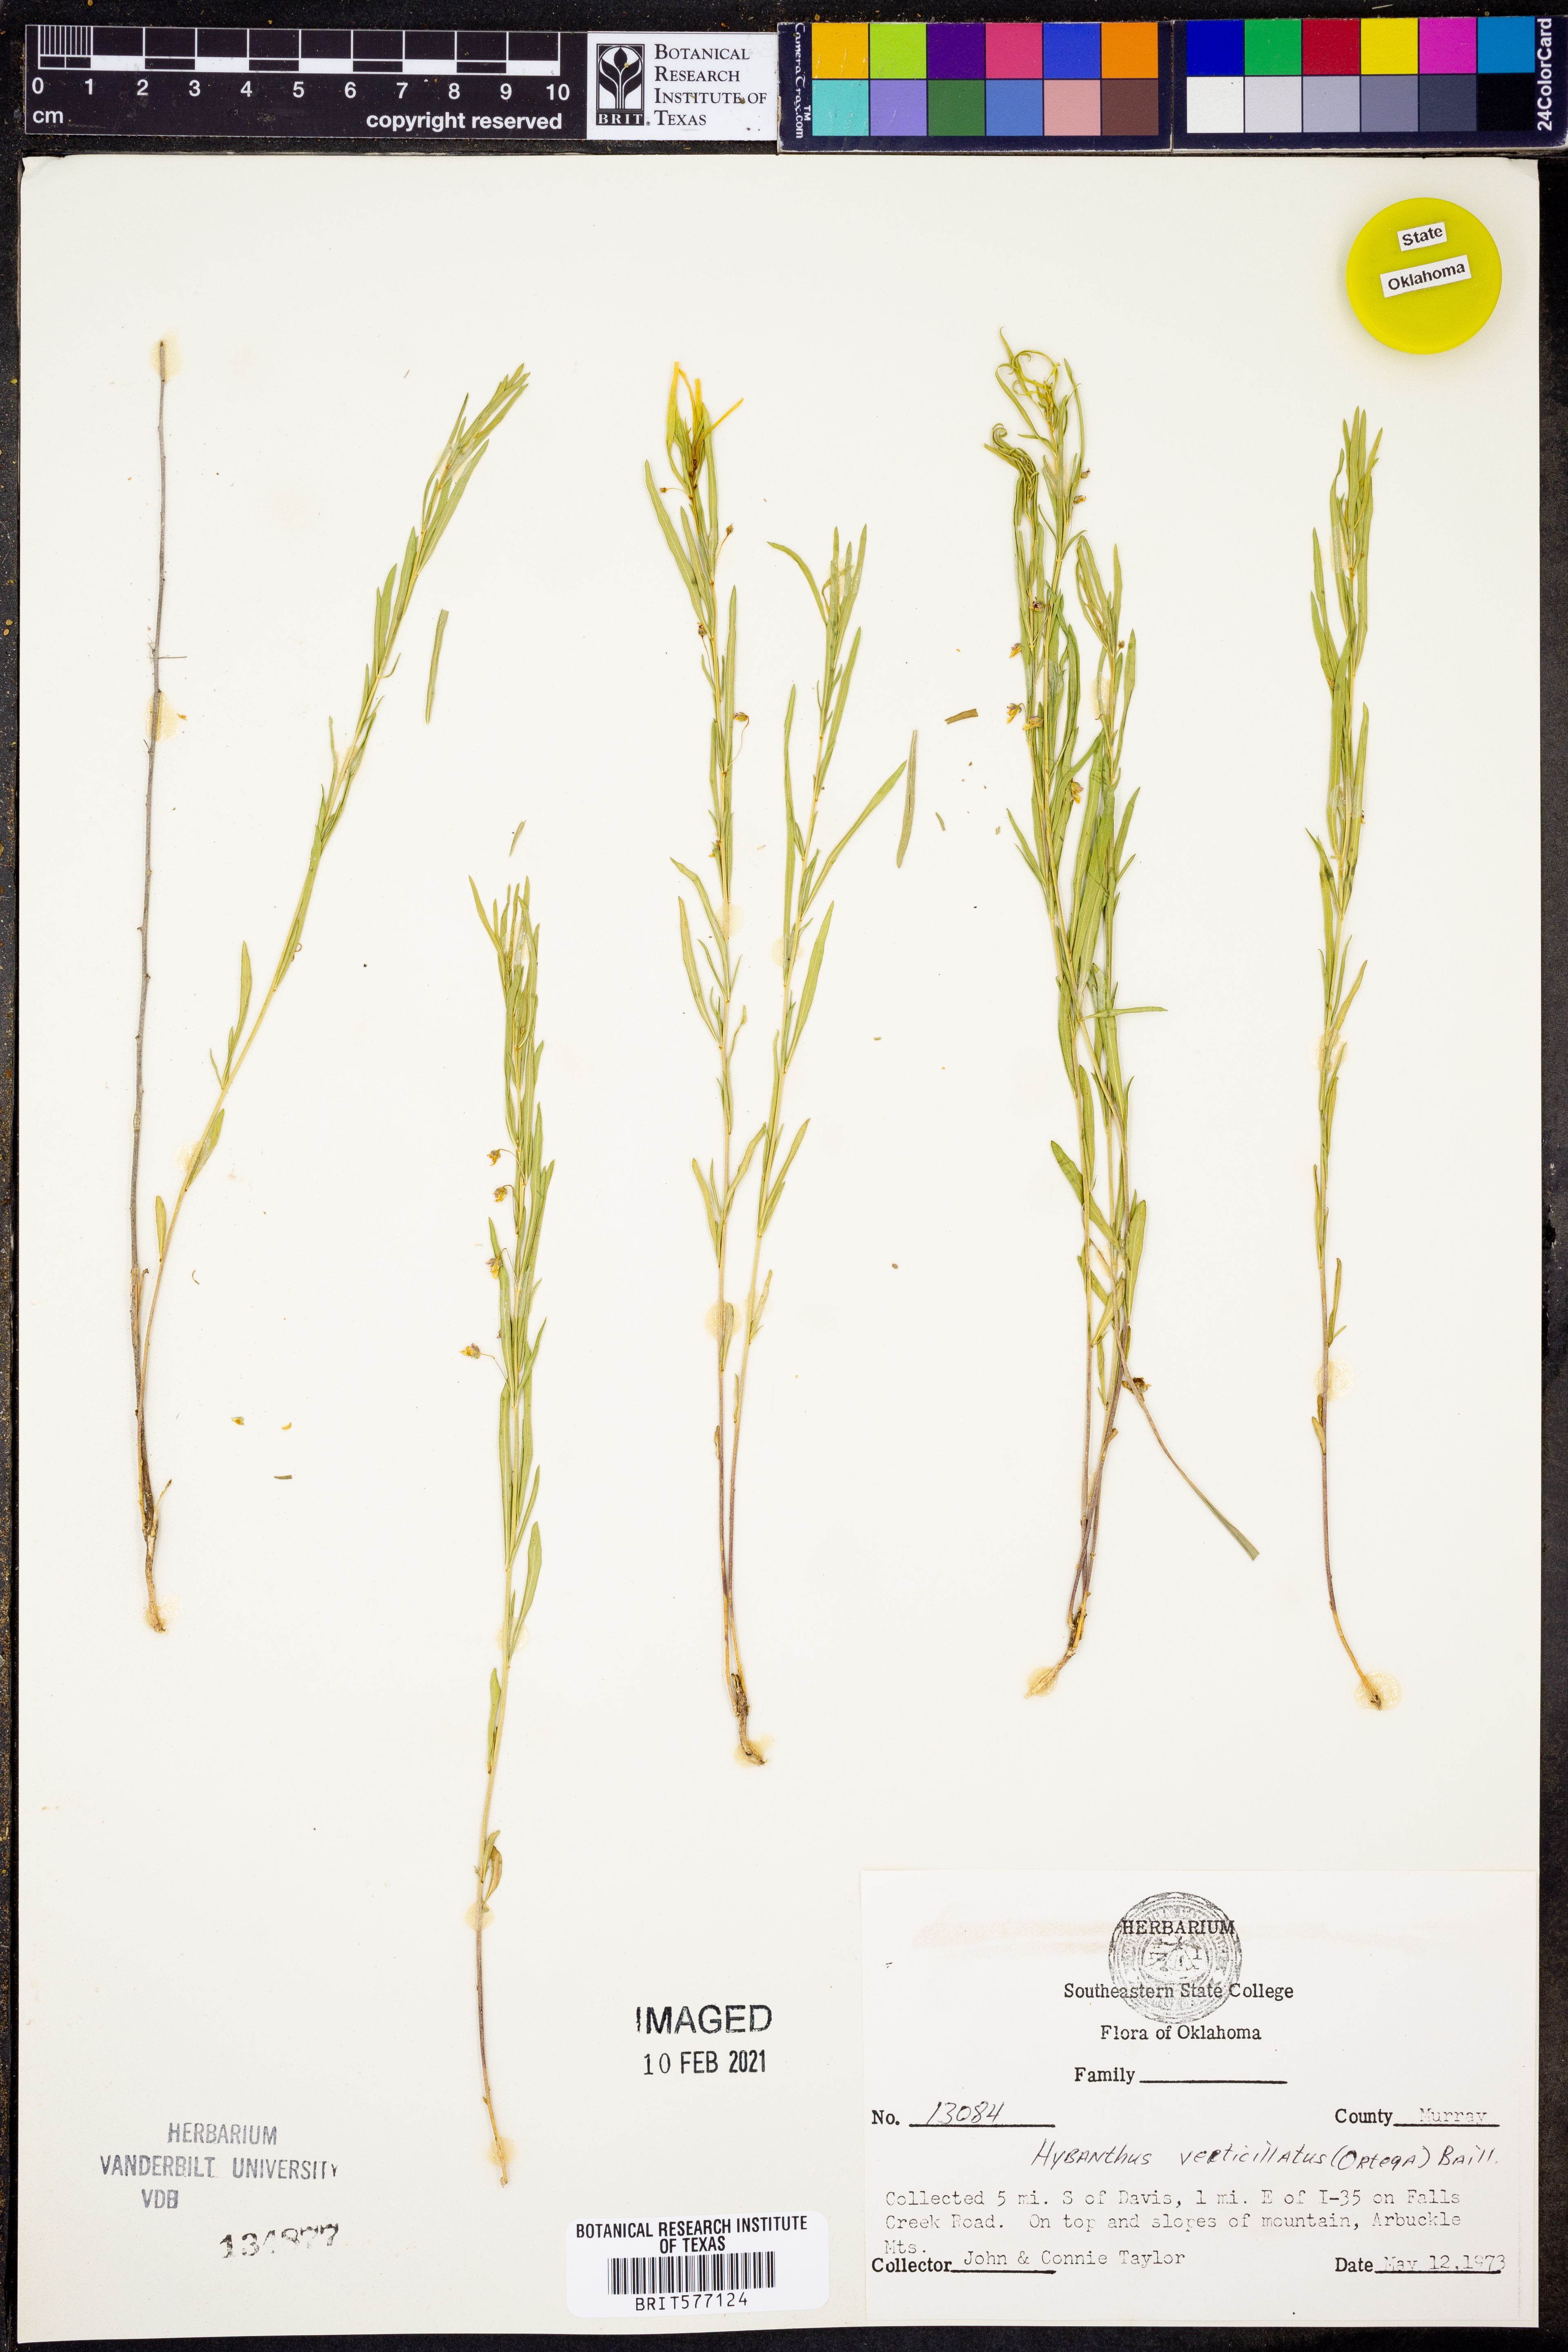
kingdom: Plantae
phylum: Tracheophyta
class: Magnoliopsida
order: Malpighiales
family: Violaceae
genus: Pombalia
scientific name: Pombalia verticillata
